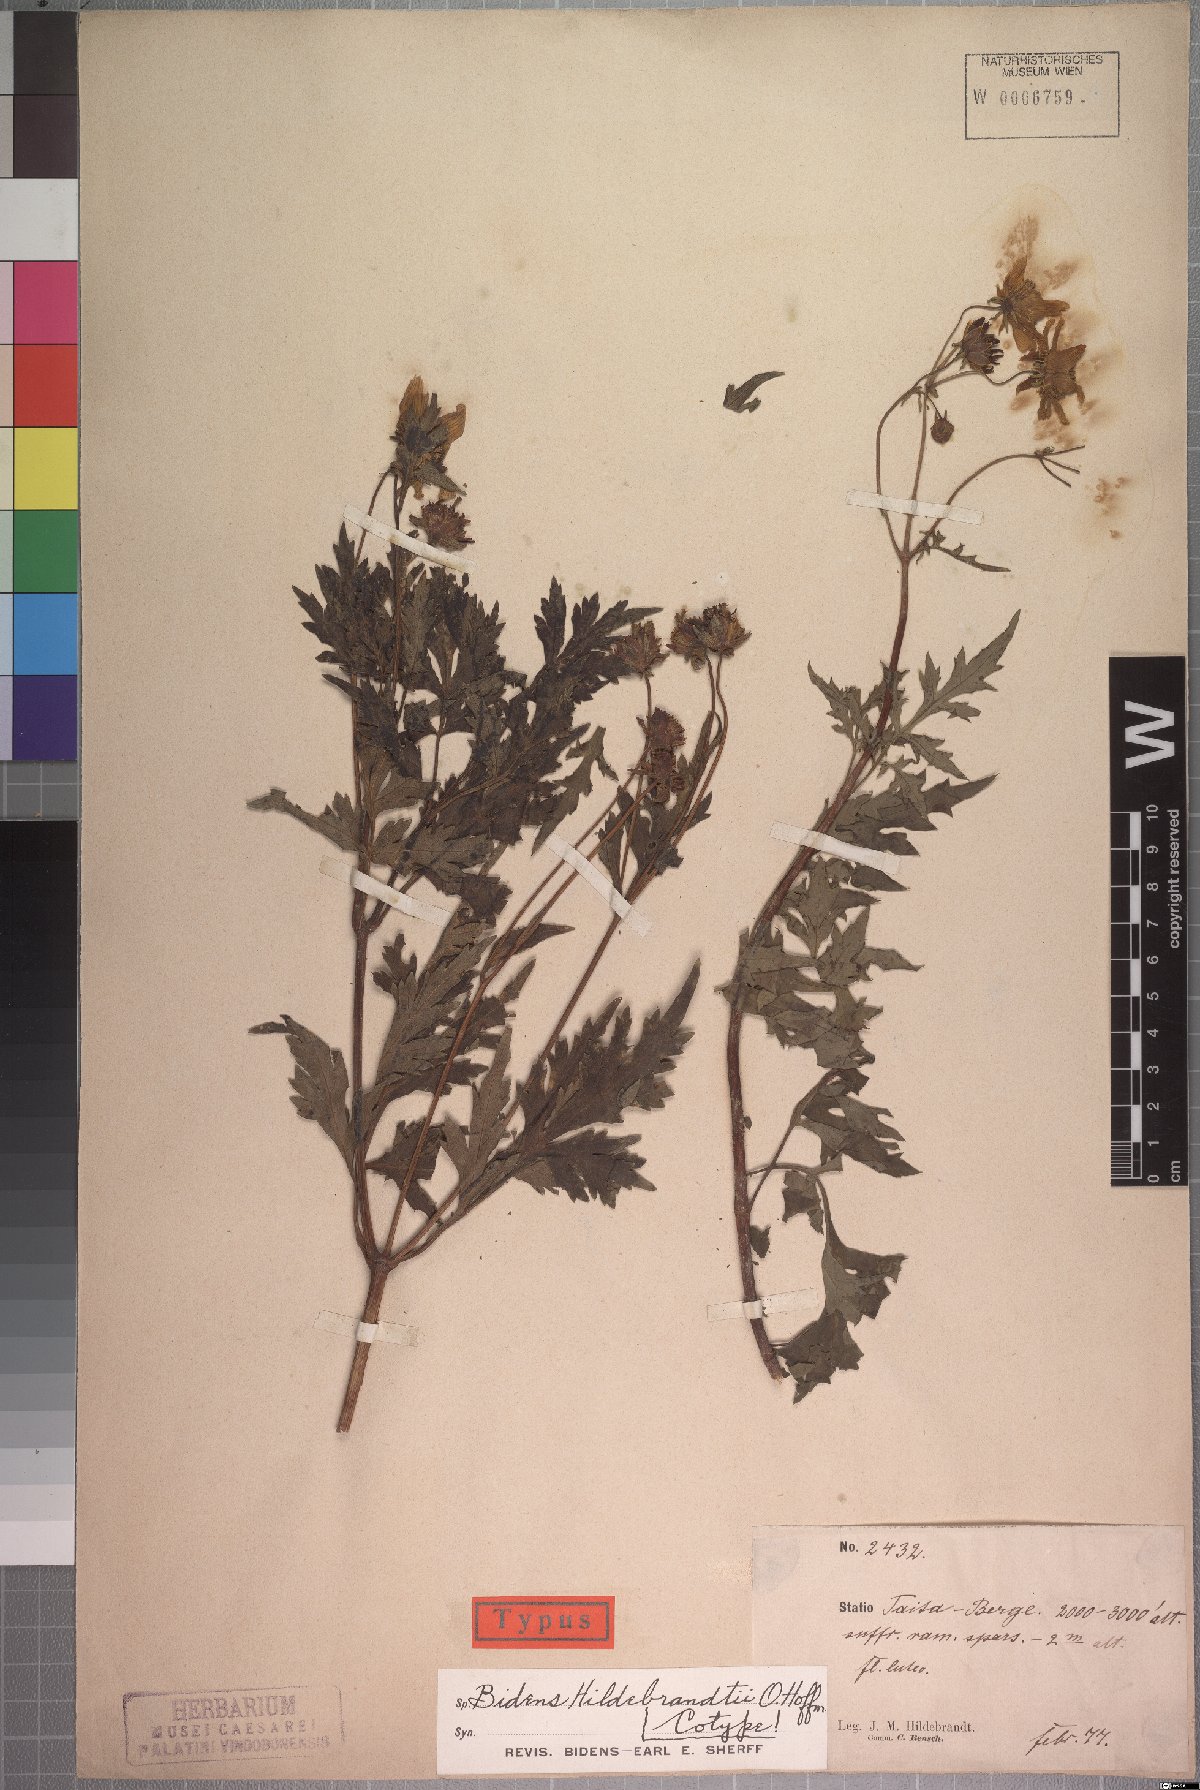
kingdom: Plantae
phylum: Tracheophyta
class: Magnoliopsida
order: Asterales
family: Asteraceae
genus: Bidens
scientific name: Bidens hildebrandtii
